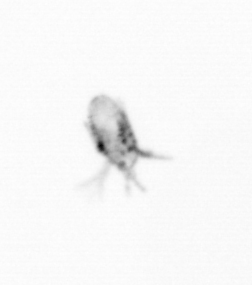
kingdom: Animalia
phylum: Arthropoda
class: Copepoda
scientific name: Copepoda
